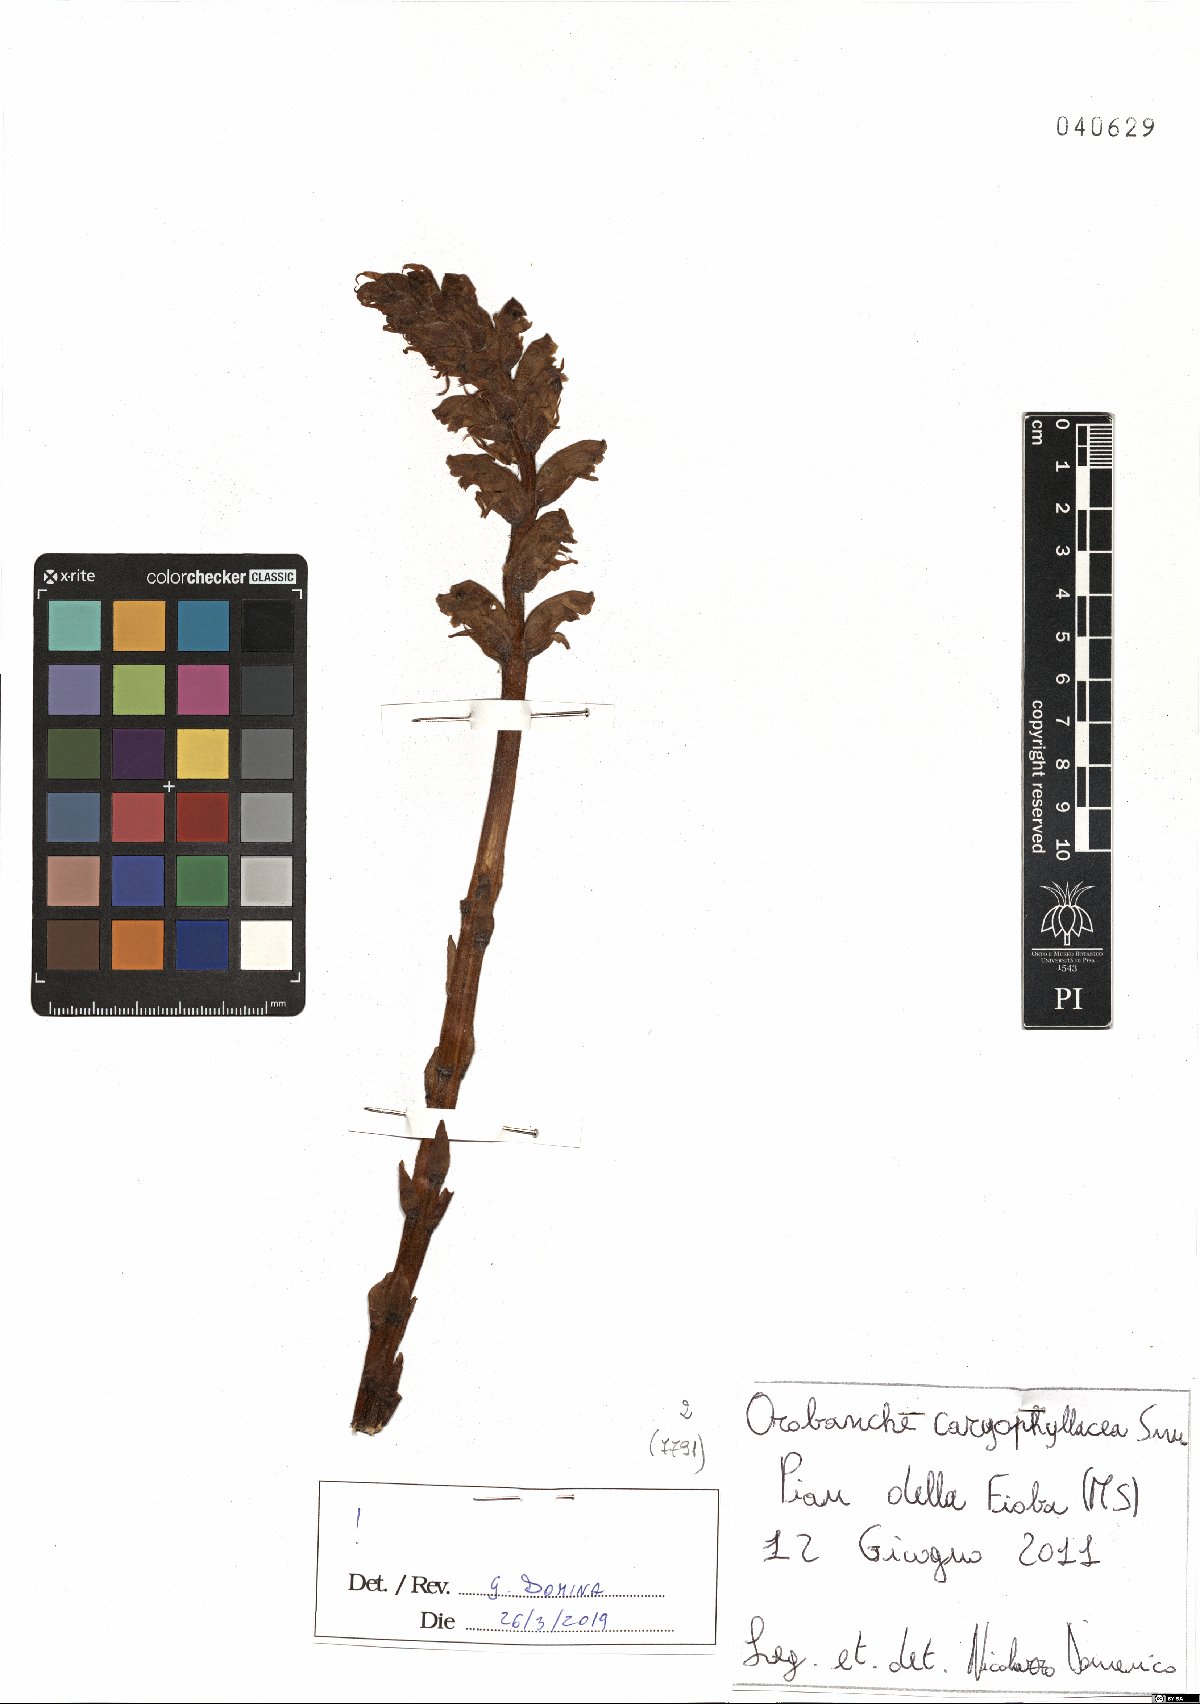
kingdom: Plantae
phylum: Tracheophyta
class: Magnoliopsida
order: Lamiales
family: Orobanchaceae
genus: Orobanche
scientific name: Orobanche caryophyllacea
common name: Bedstraw broomrape
